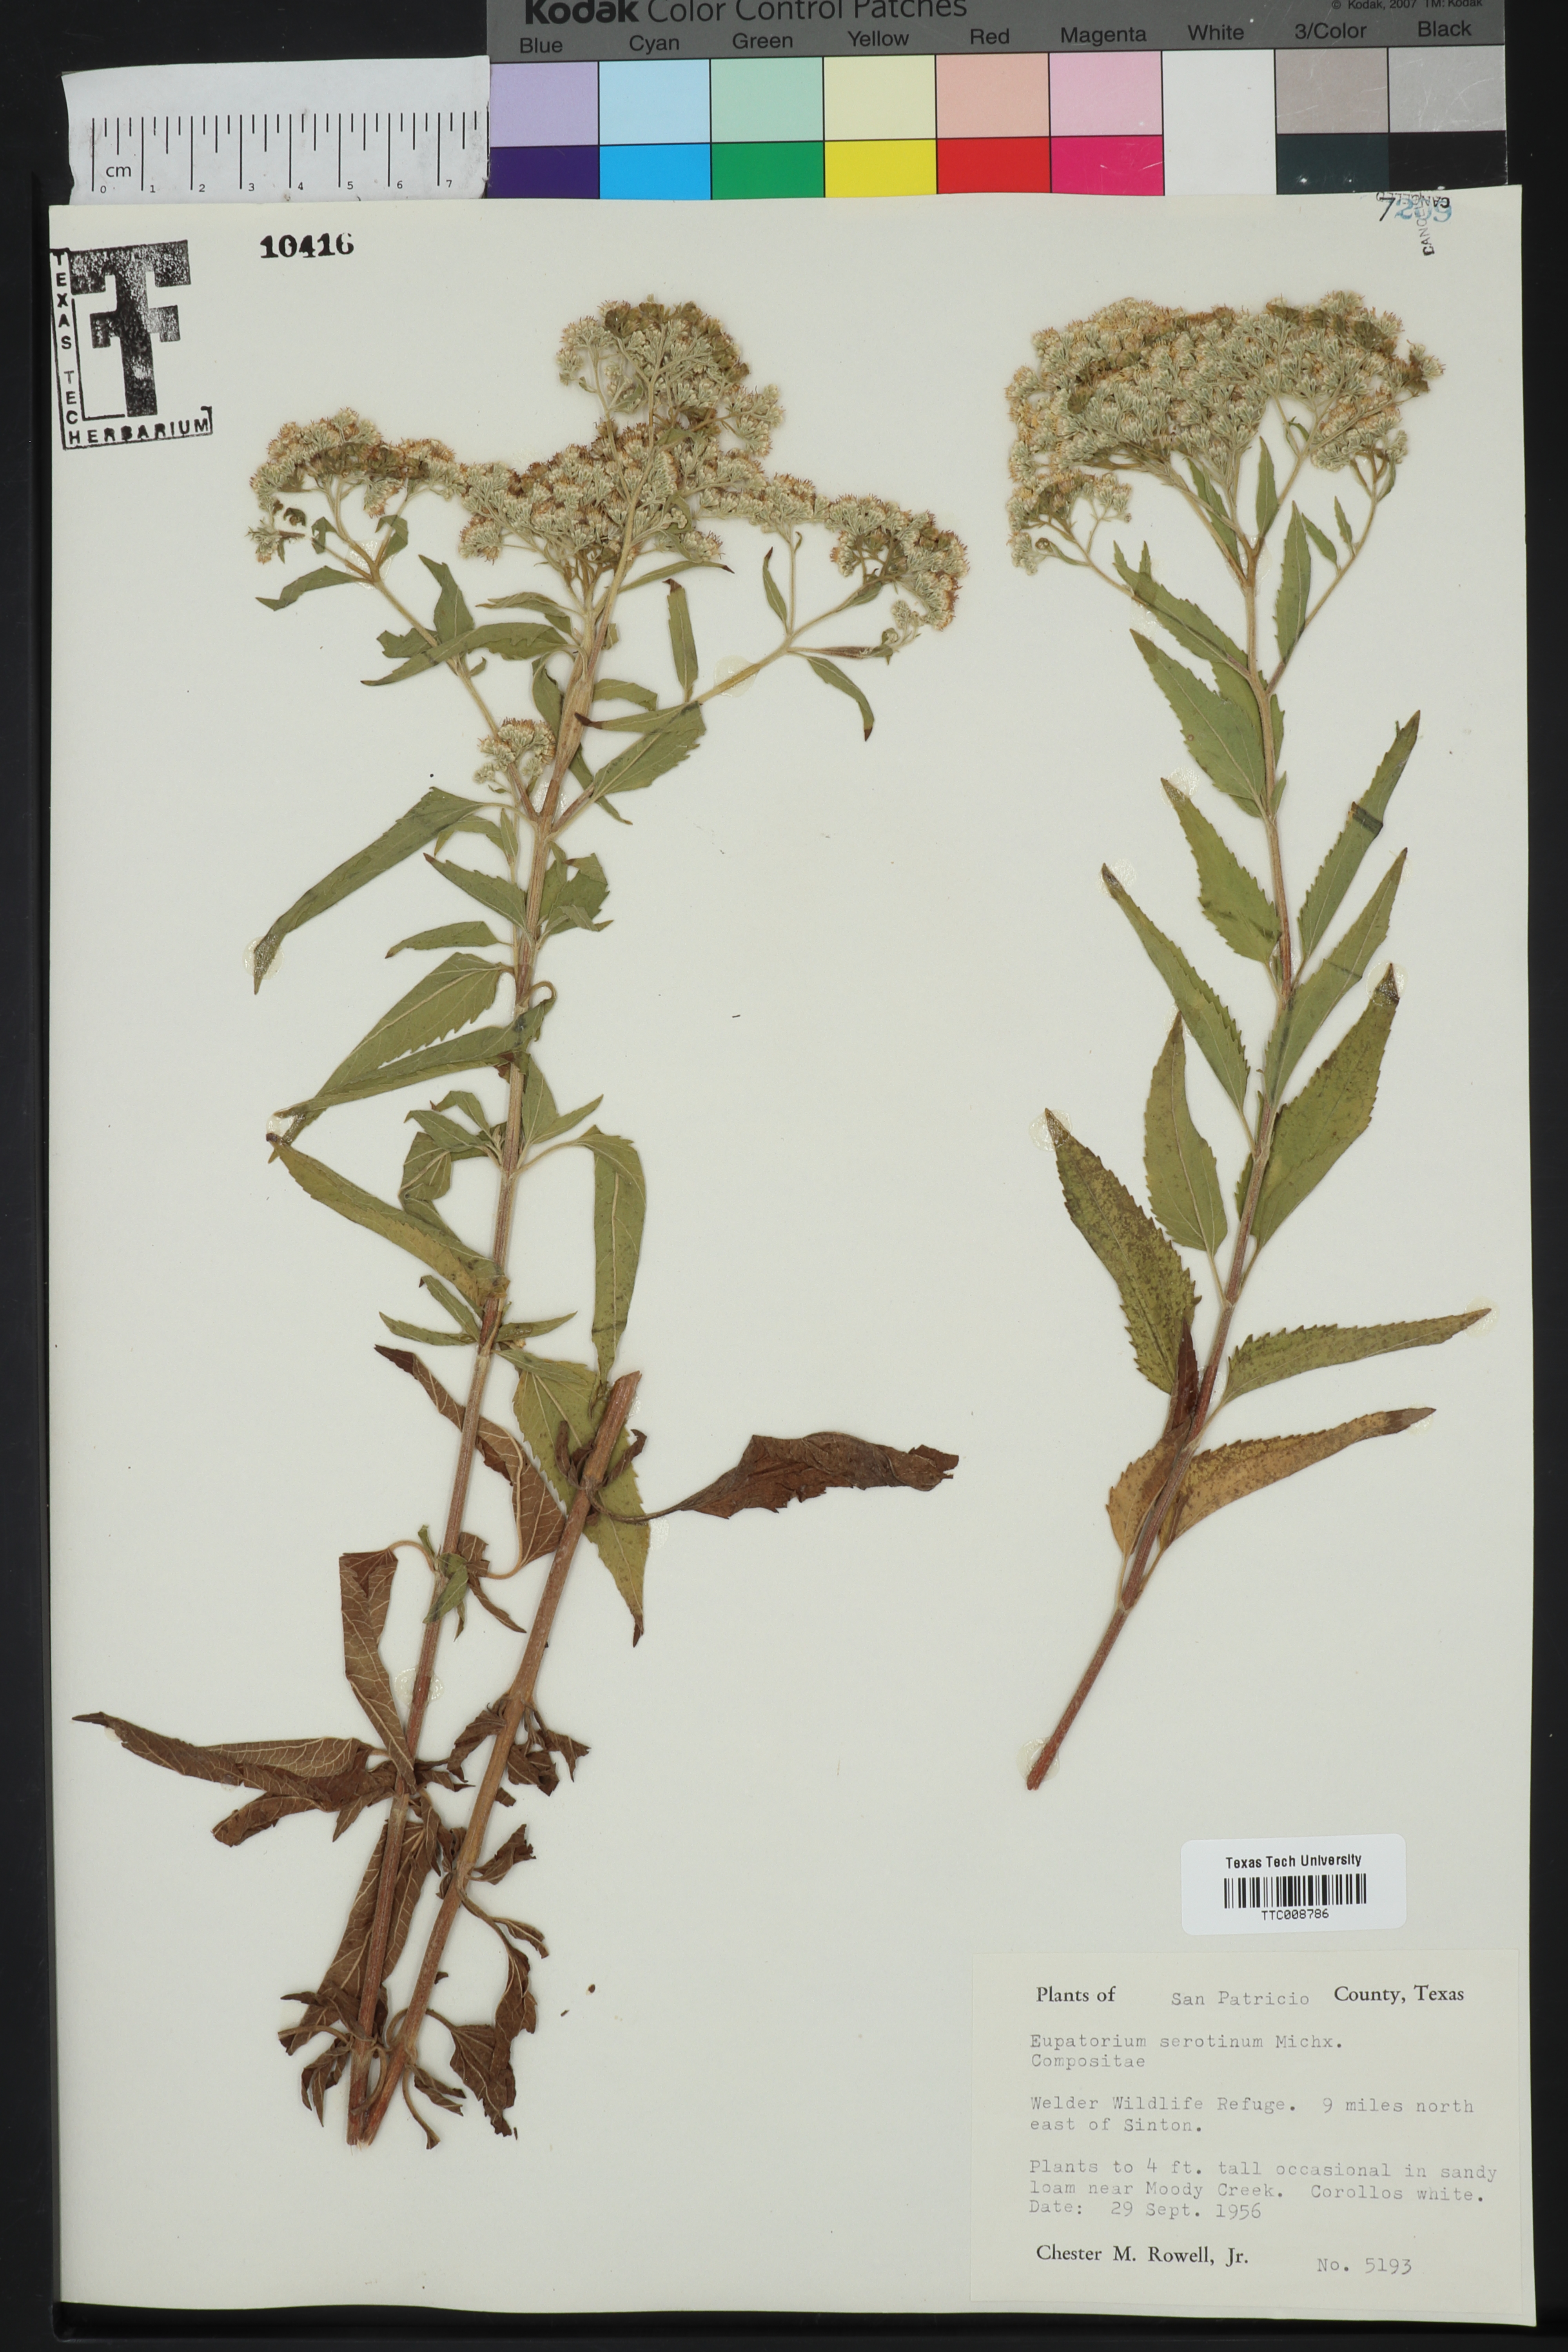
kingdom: Plantae
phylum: Tracheophyta
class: Magnoliopsida
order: Asterales
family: Asteraceae
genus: Eupatorium
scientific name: Eupatorium serotinum
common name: Late boneset
